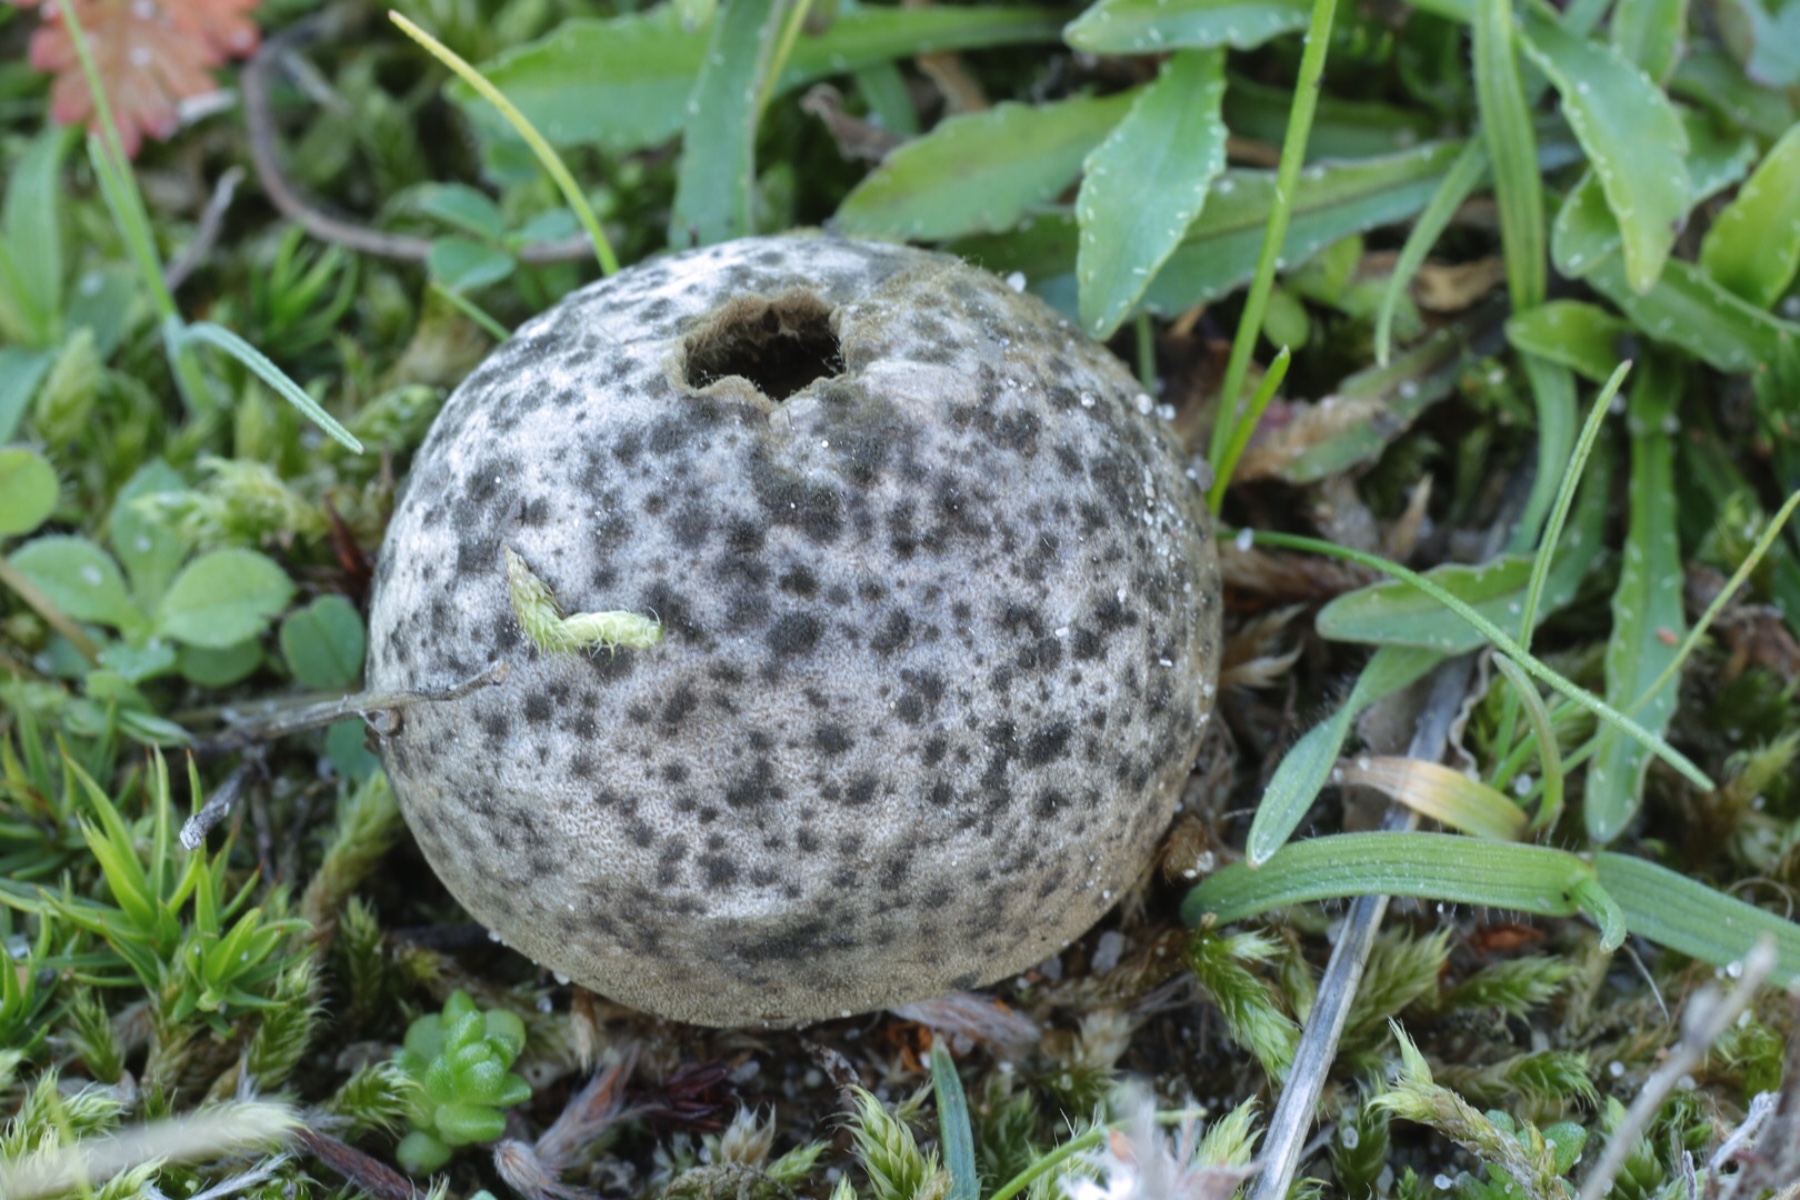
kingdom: Fungi
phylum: Ascomycota
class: Dothideomycetes
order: Capnodiales
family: Cladosporiaceae
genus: Cladosporium
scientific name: Cladosporium
